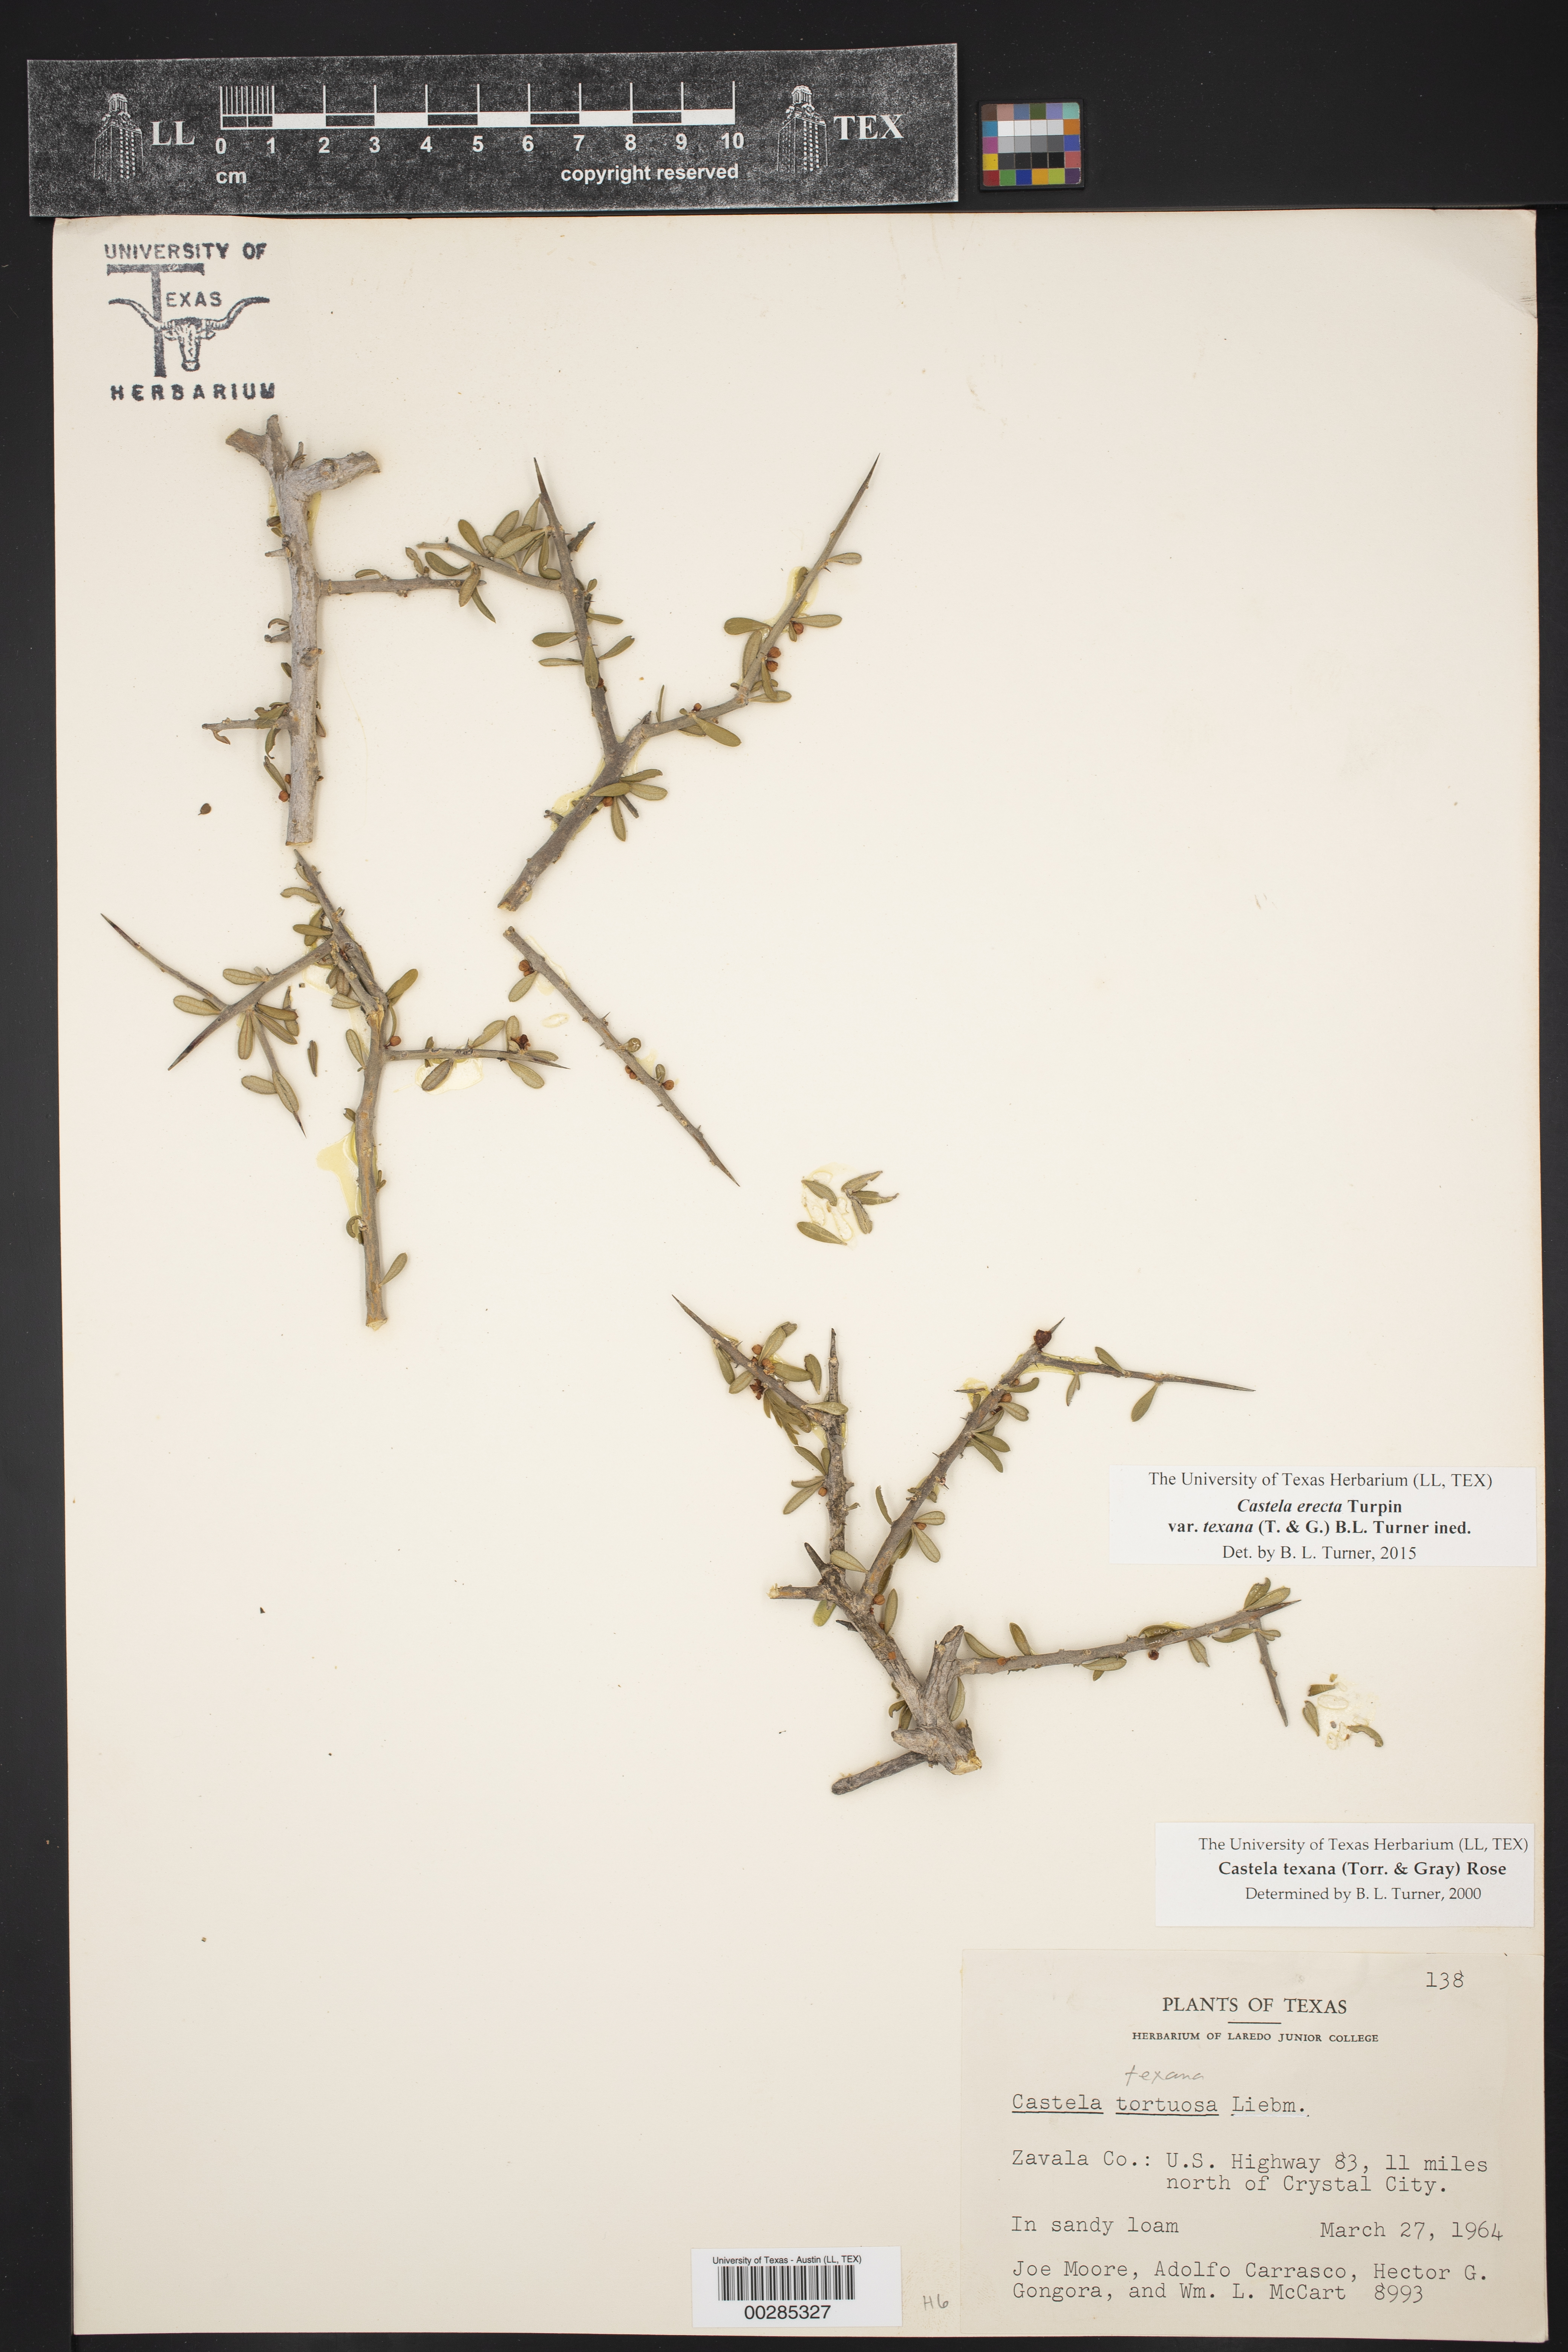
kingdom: Plantae
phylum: Tracheophyta
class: Magnoliopsida
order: Sapindales
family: Simaroubaceae
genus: Castela
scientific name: Castela tortuosa
